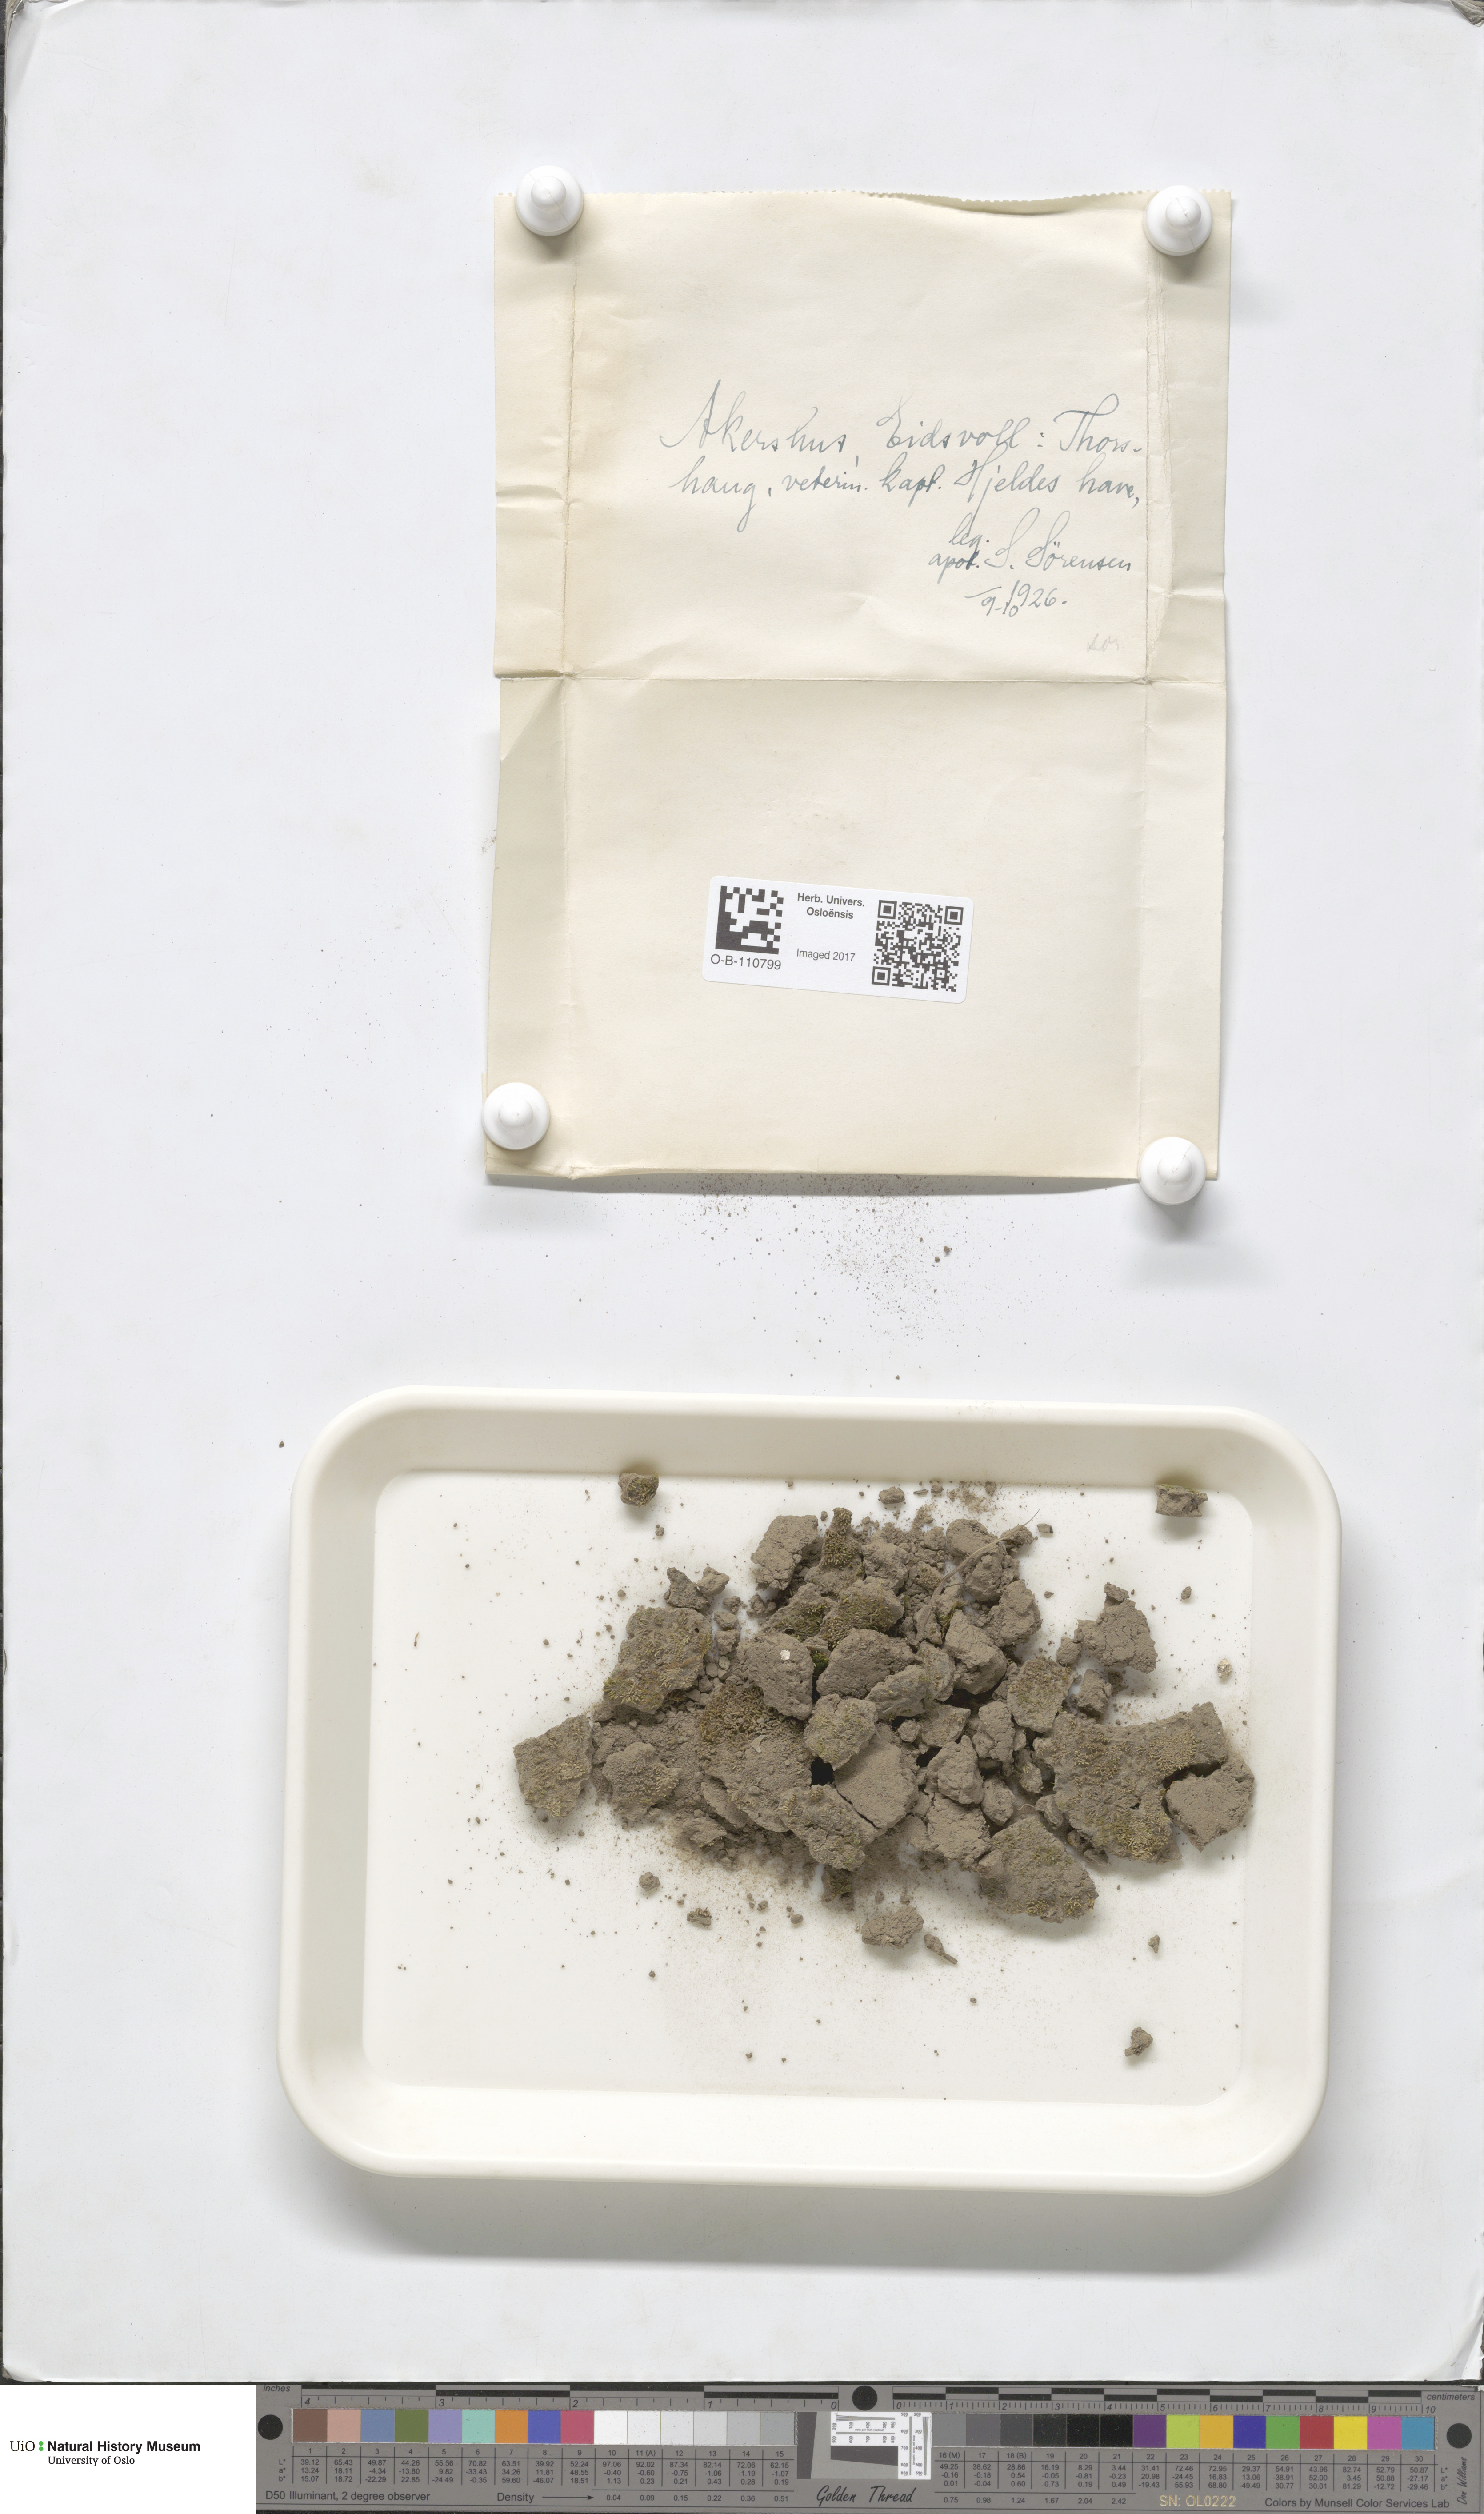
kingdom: Plantae
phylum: Marchantiophyta
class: Marchantiopsida
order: Marchantiales
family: Ricciaceae
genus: Riccia
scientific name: Riccia sorocarpa
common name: Common crystalwort
